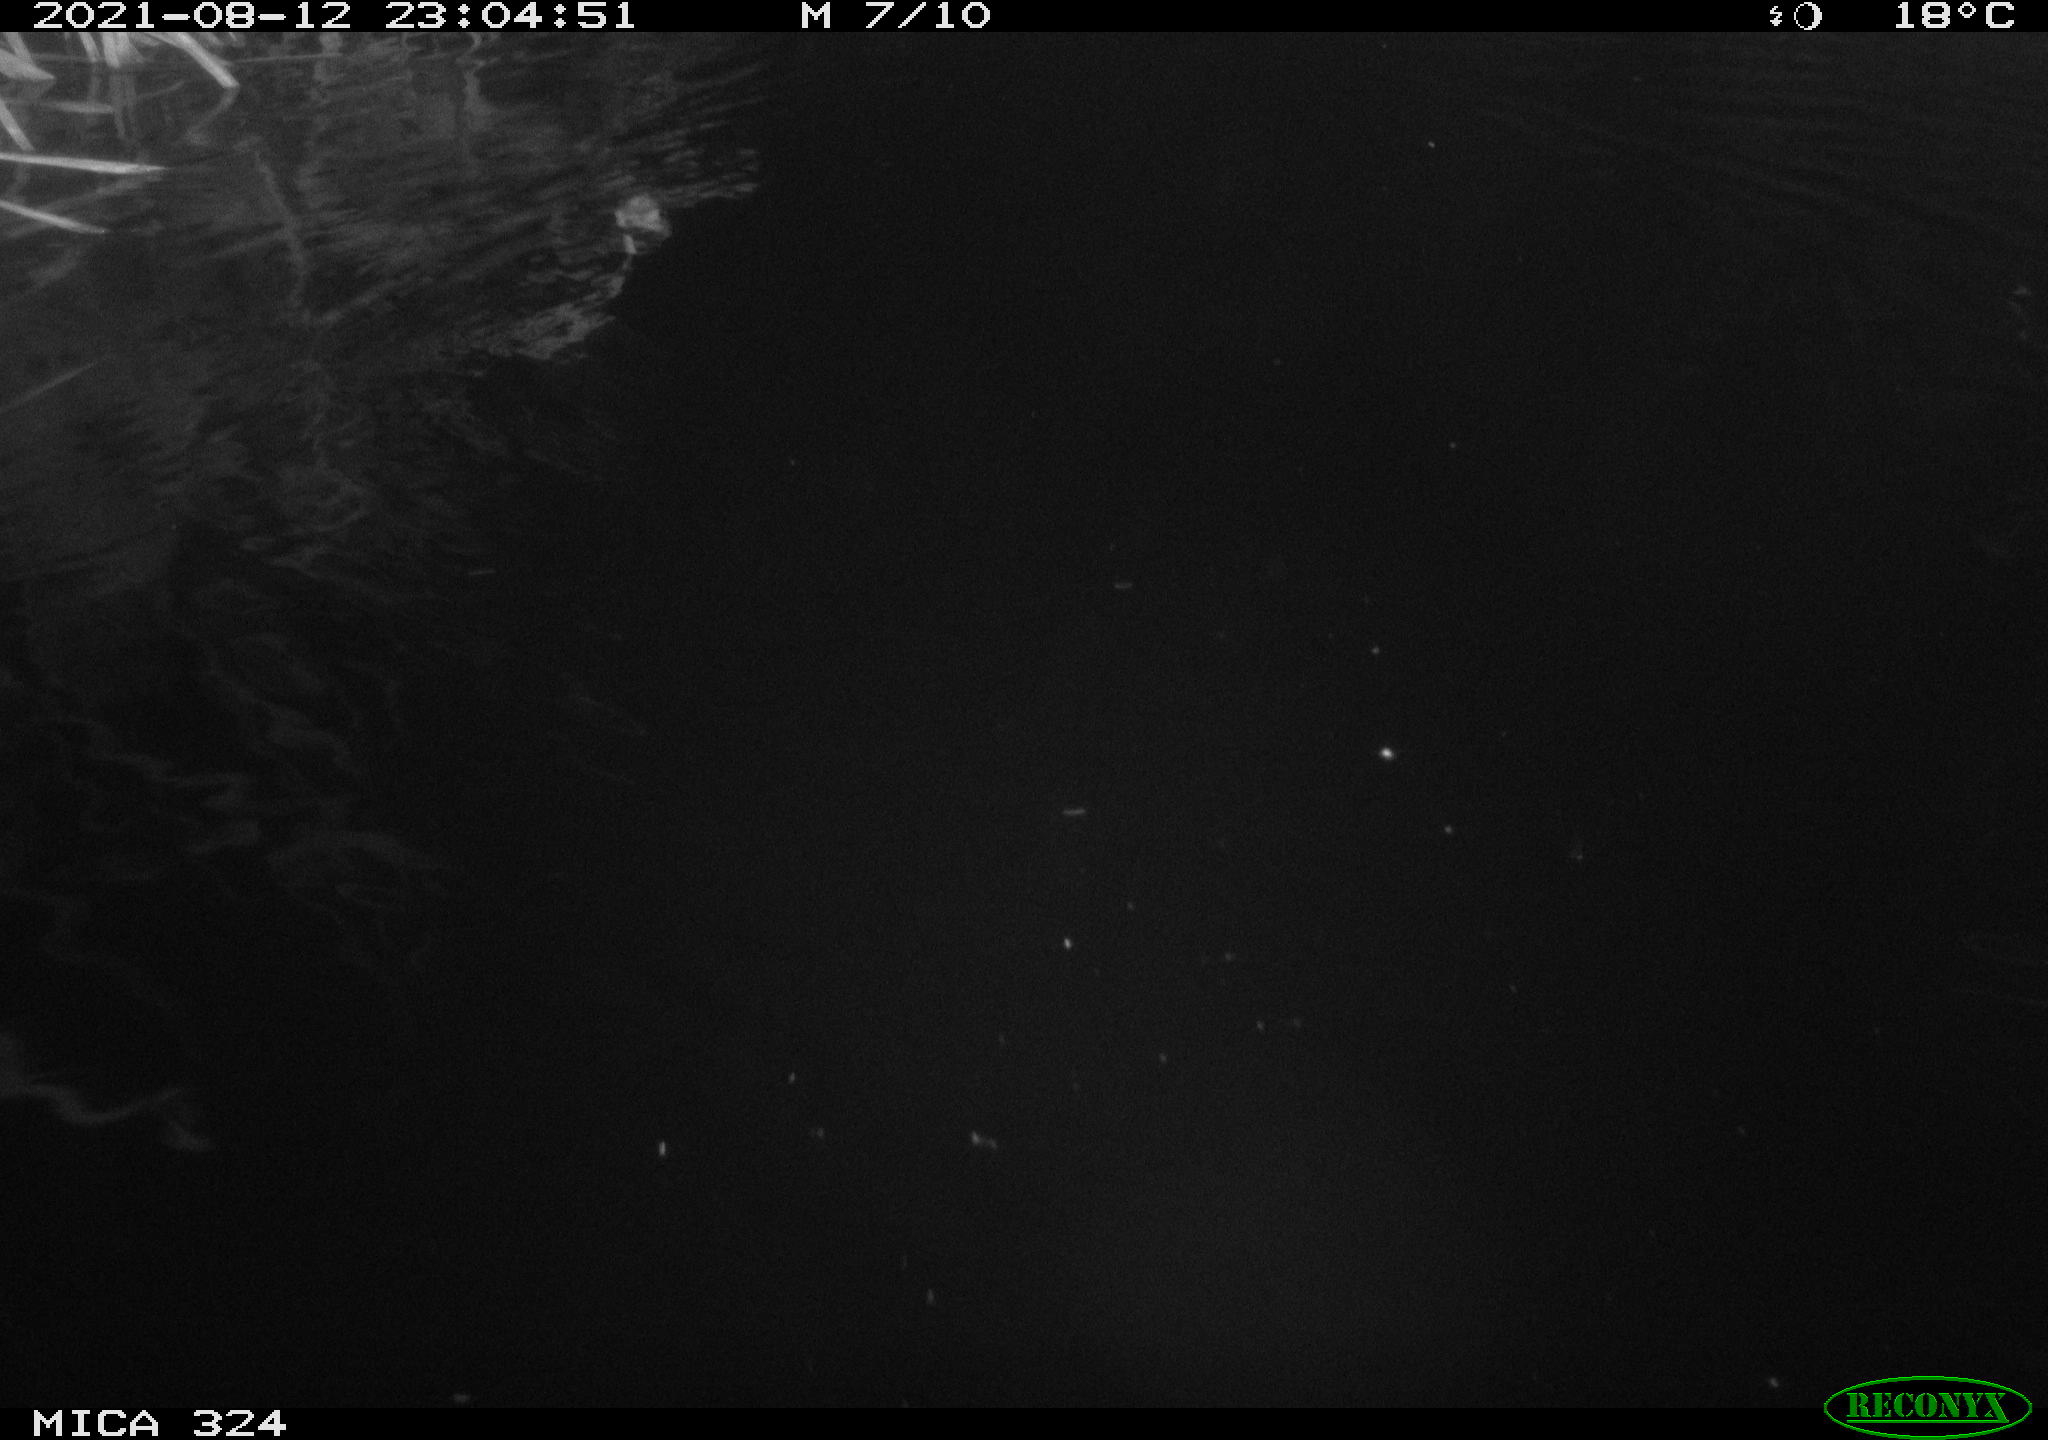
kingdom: Animalia
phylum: Chordata
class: Mammalia
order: Rodentia
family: Cricetidae
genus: Ondatra
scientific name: Ondatra zibethicus
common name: Muskrat
